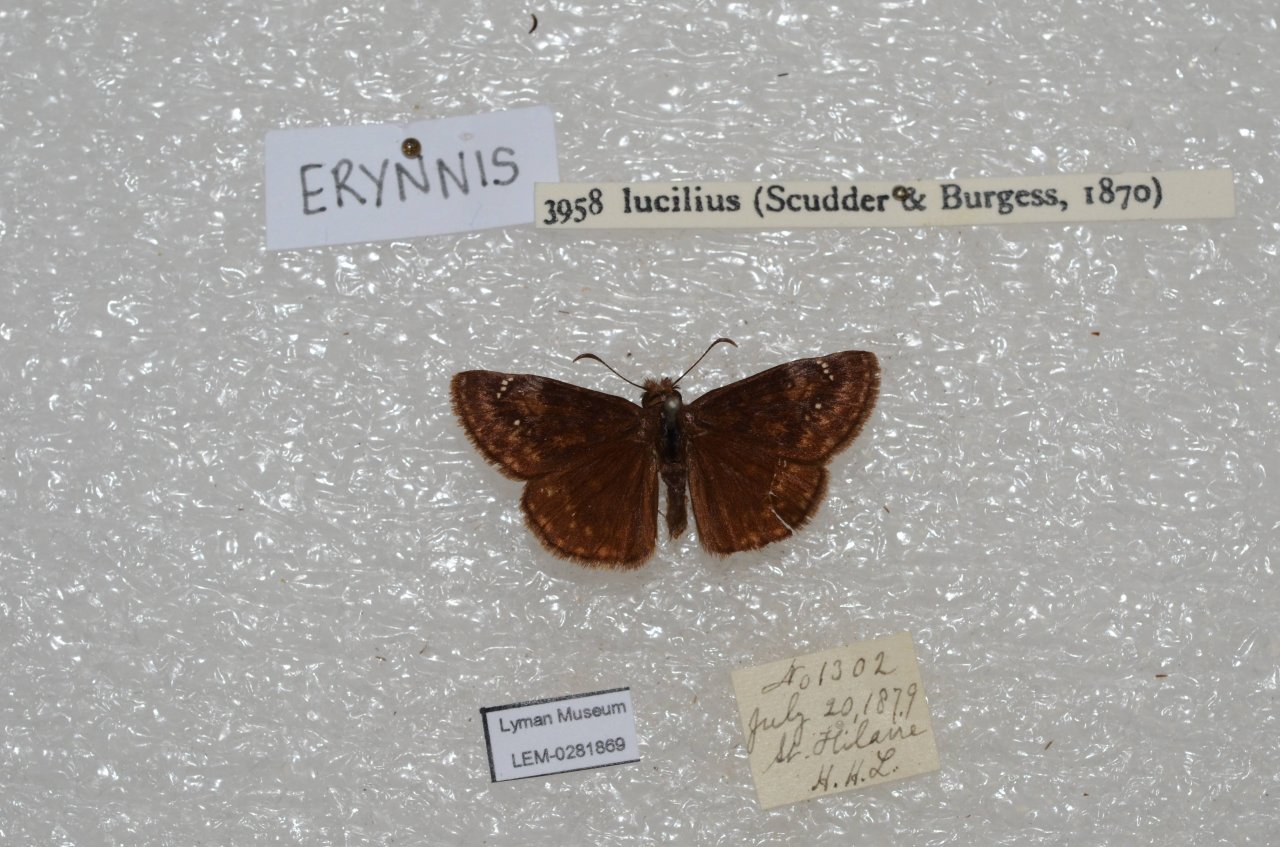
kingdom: Animalia
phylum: Arthropoda
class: Insecta
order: Lepidoptera
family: Hesperiidae
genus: Gesta
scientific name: Gesta
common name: Columbine Duskywing
